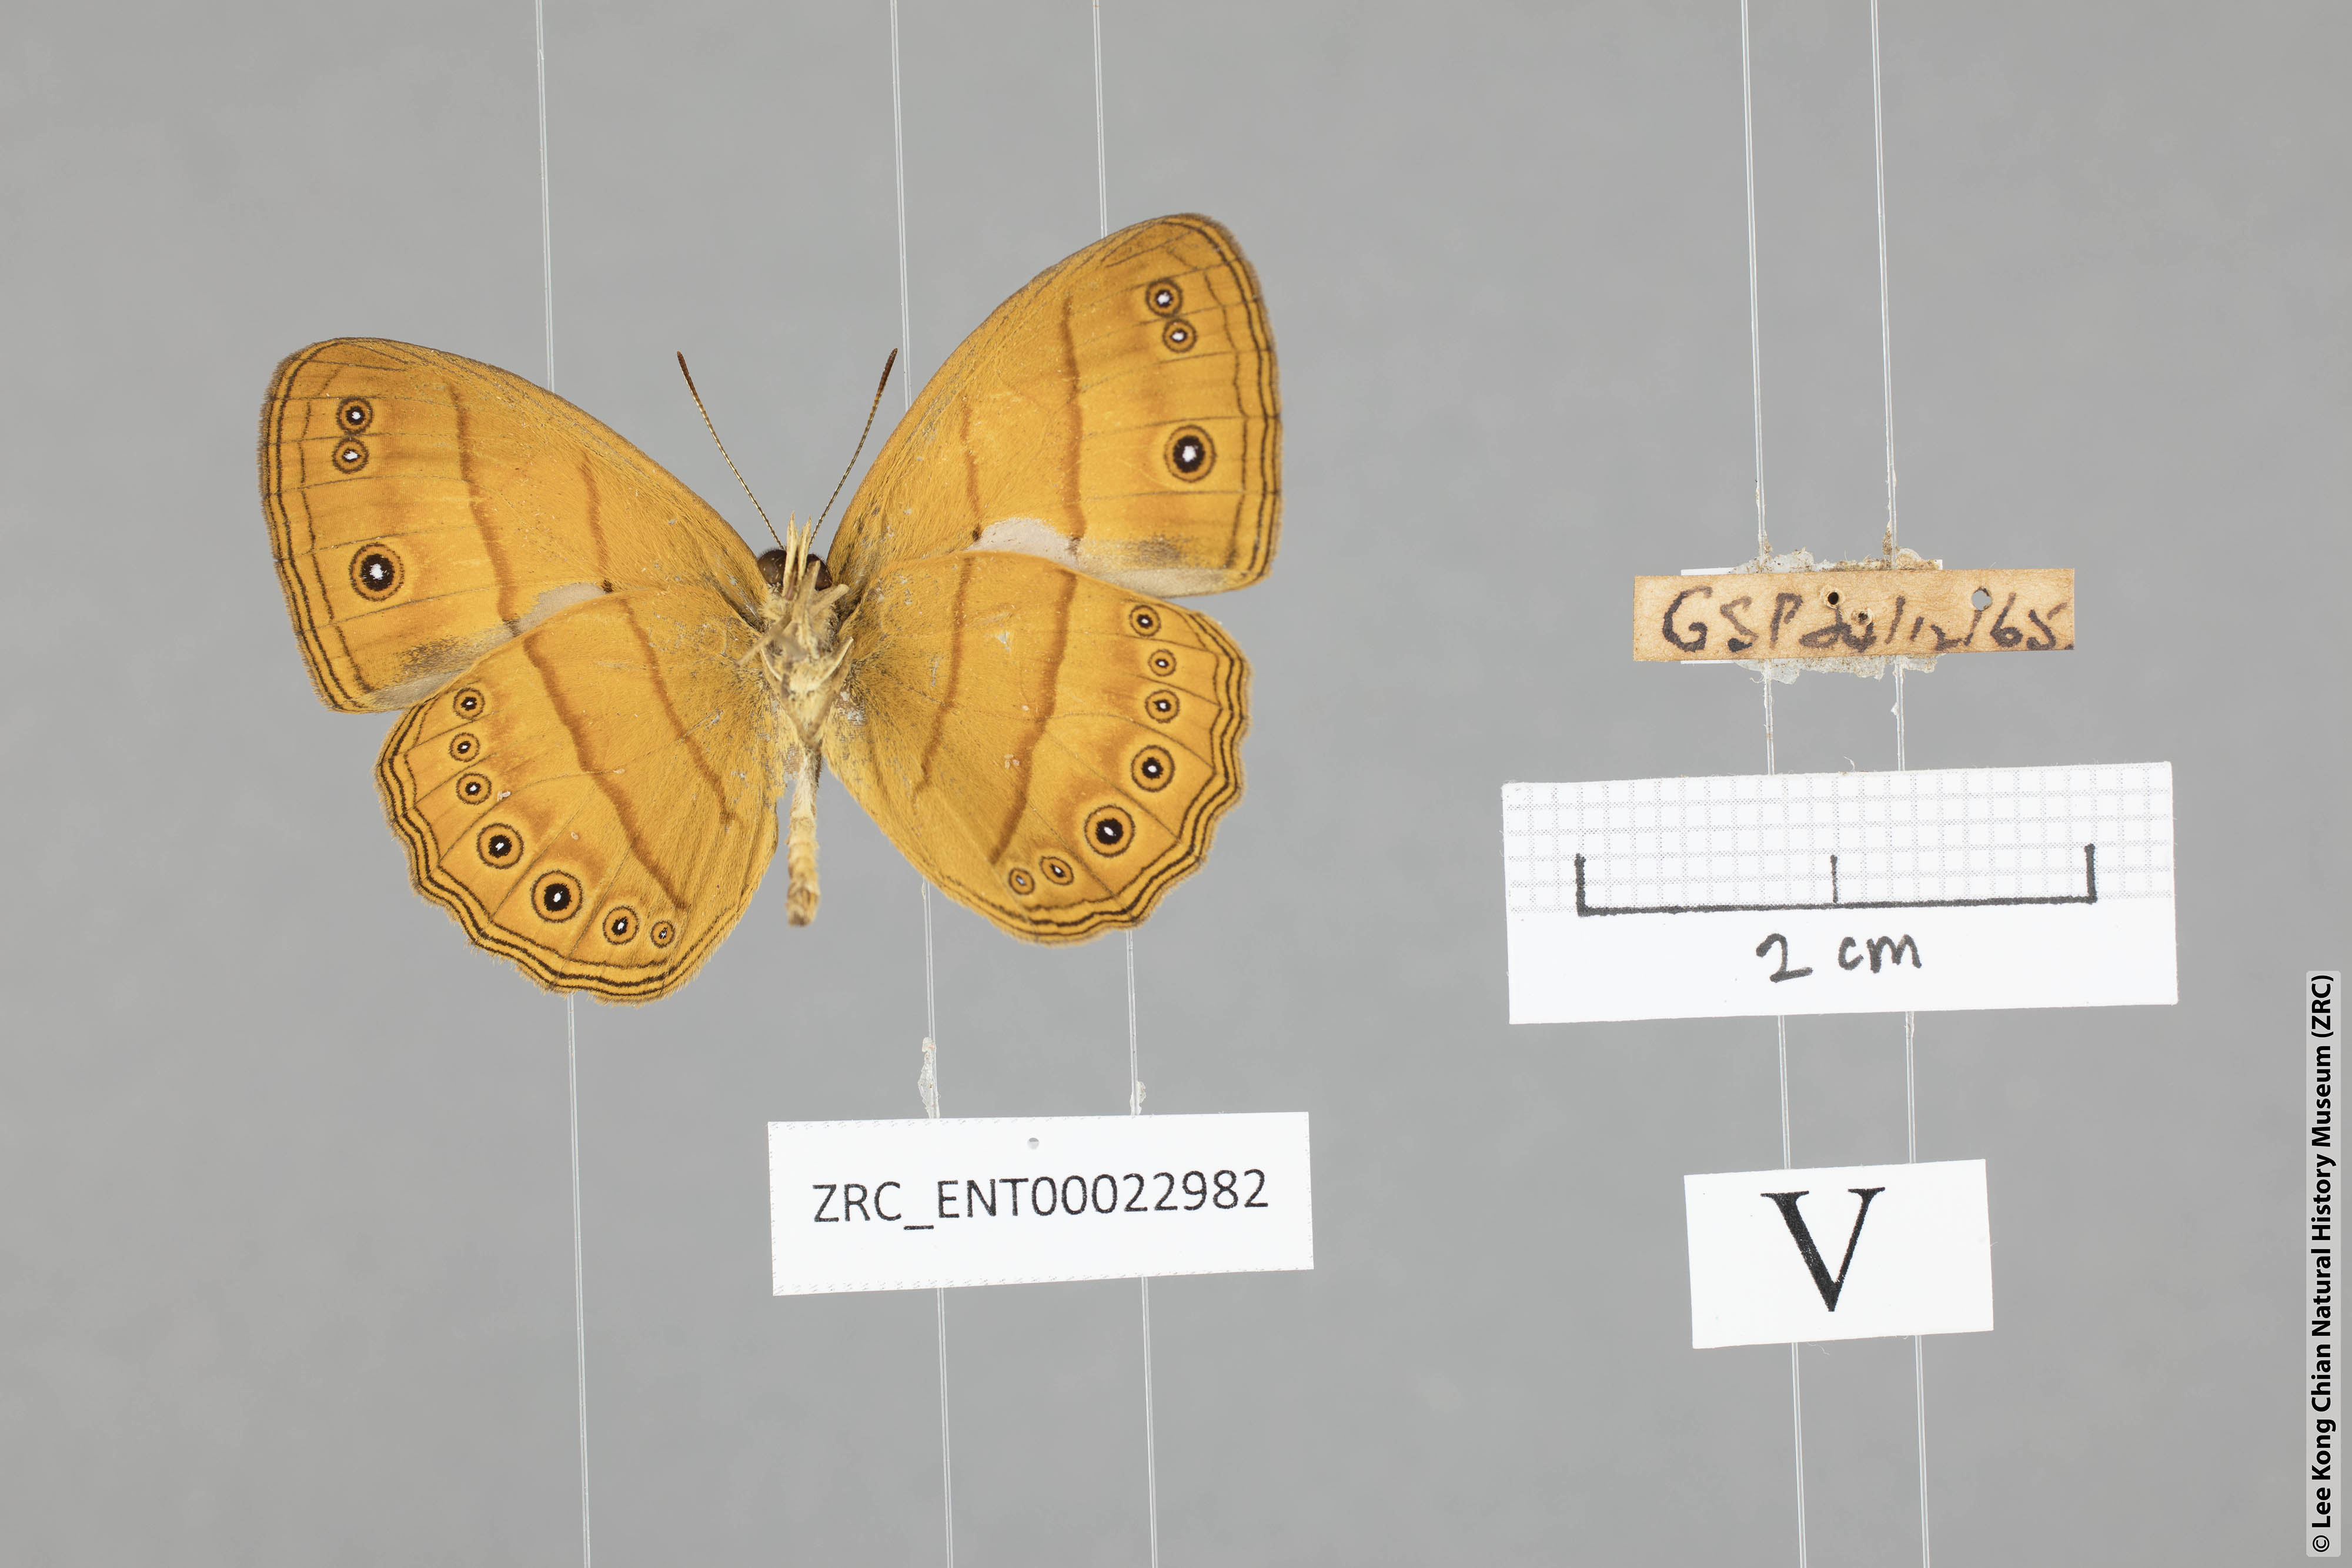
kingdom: Animalia
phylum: Arthropoda
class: Insecta
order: Lepidoptera
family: Nymphalidae
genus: Mycalesis
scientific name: Mycalesis patiana
